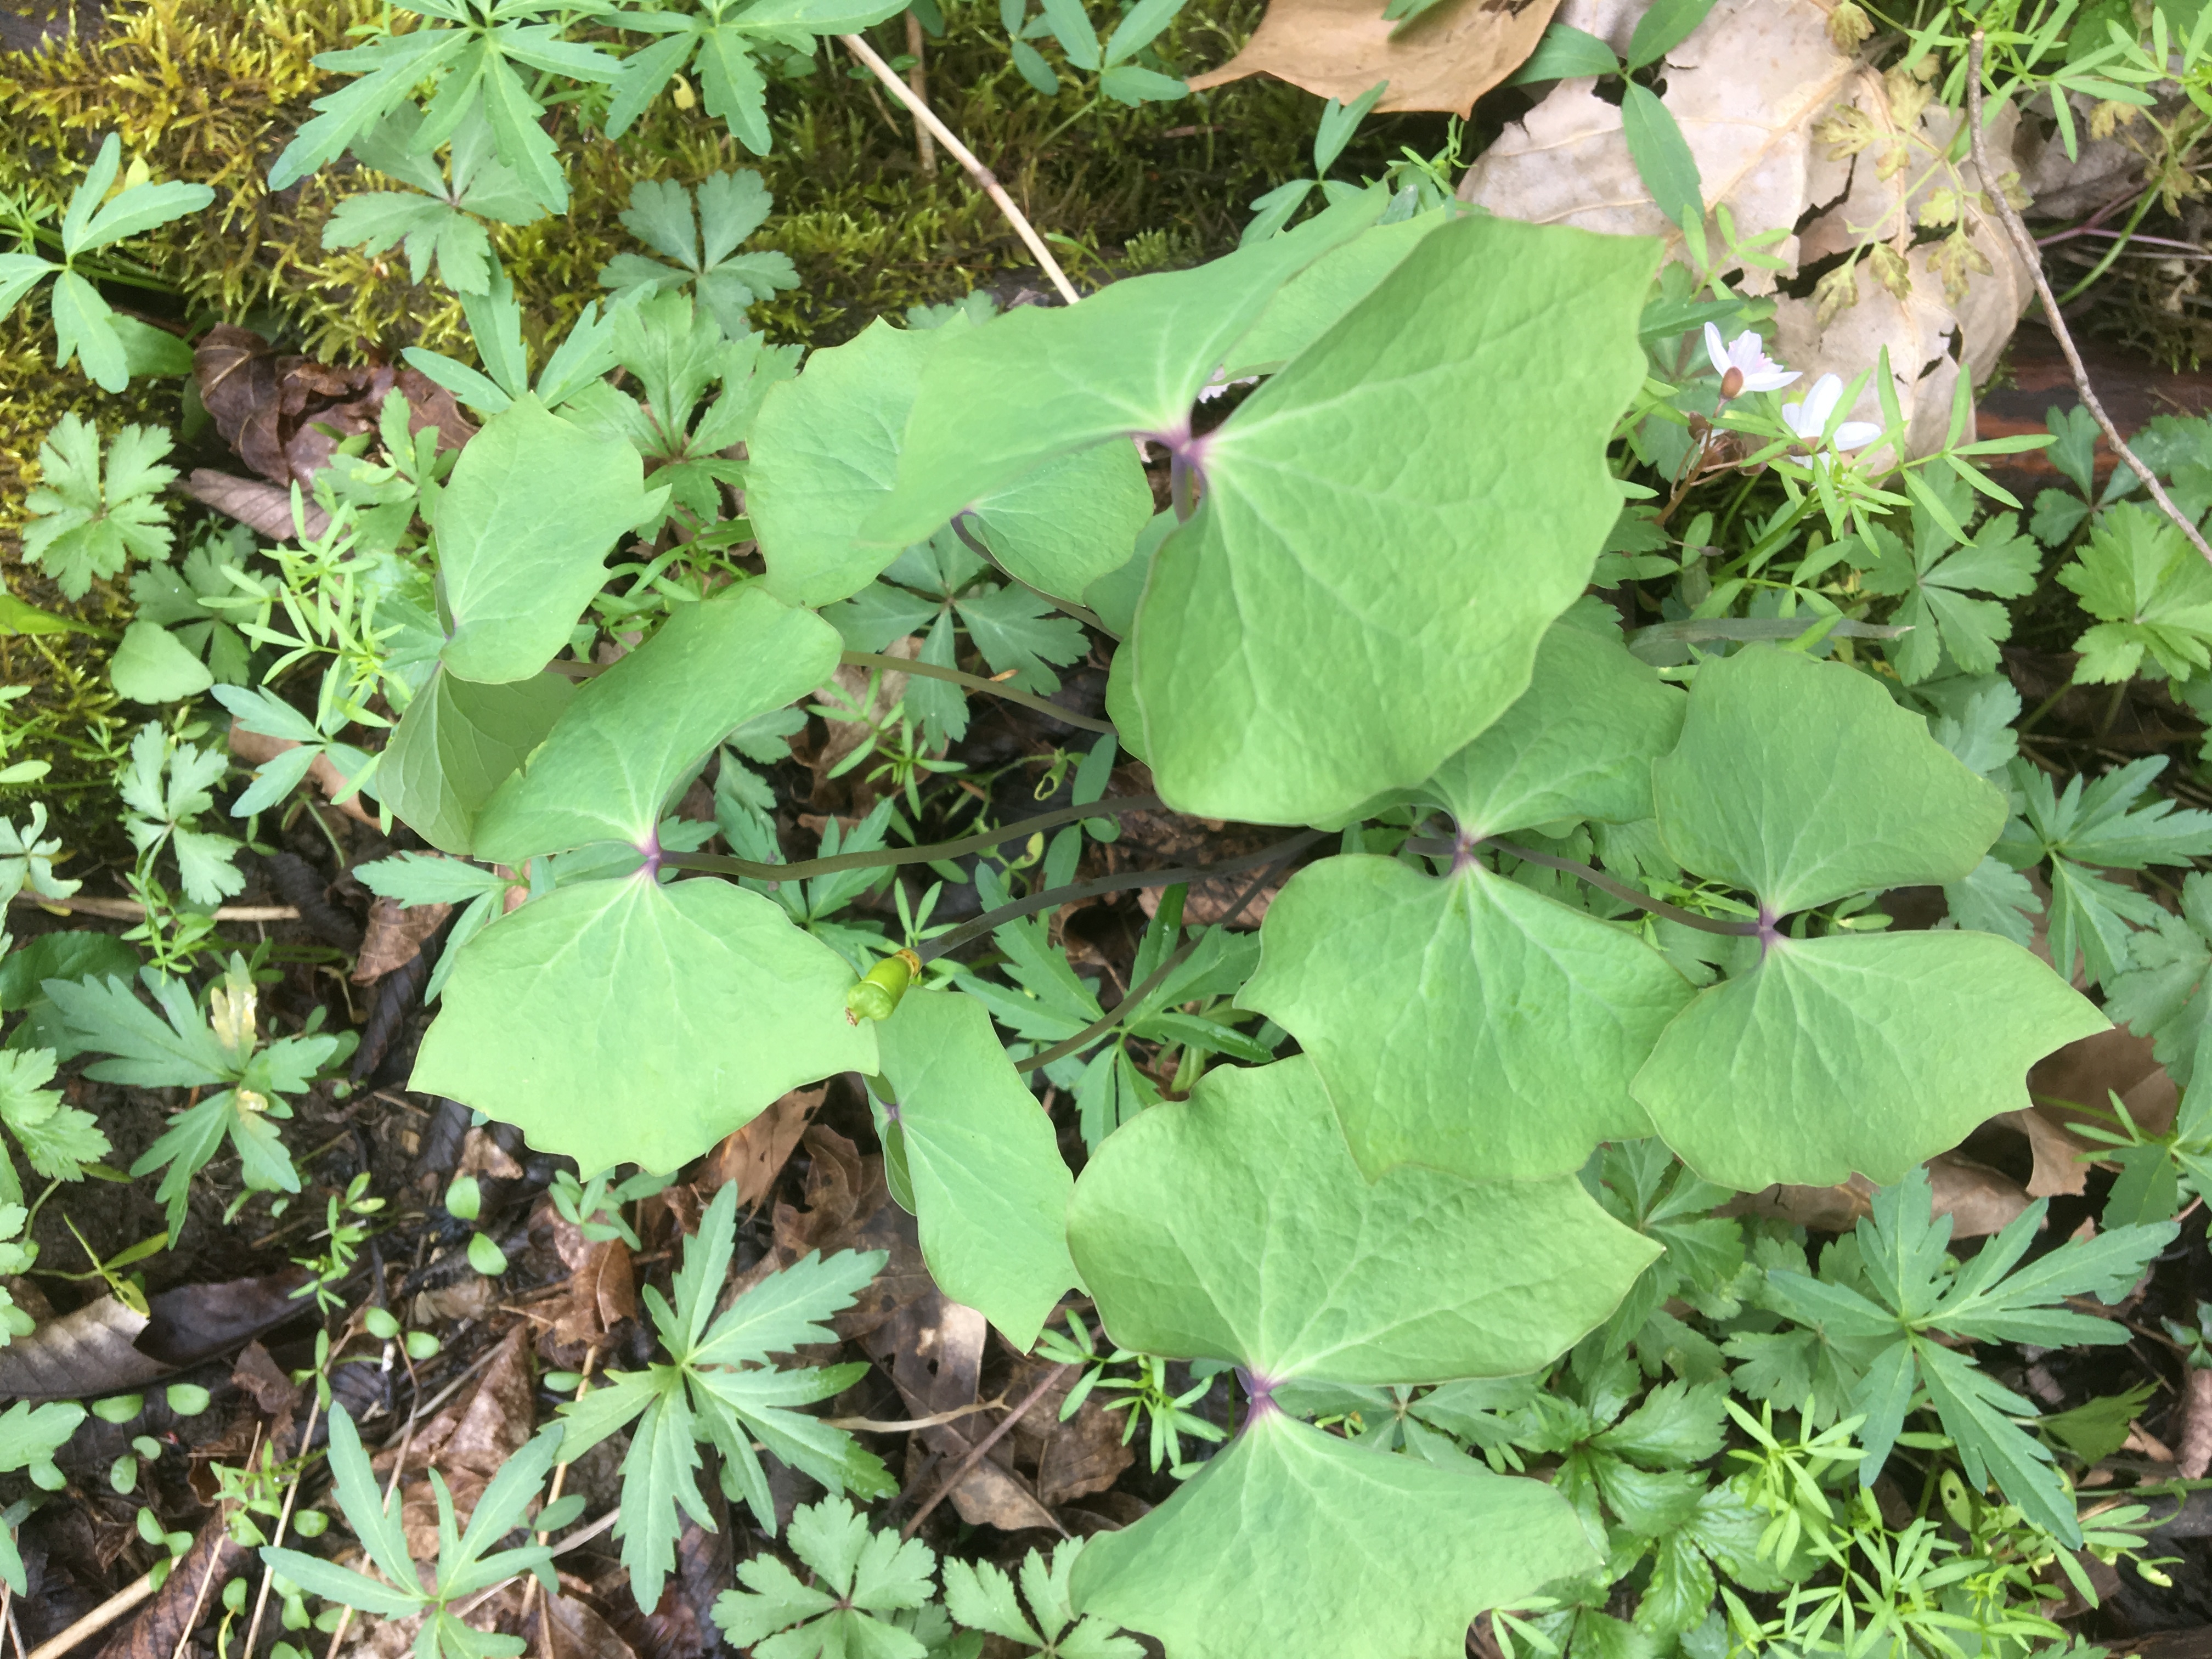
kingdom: Plantae
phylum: Tracheophyta
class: Magnoliopsida
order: Ranunculales
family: Berberidaceae
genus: Jeffersonia
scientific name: Jeffersonia diphylla
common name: twinleaf
